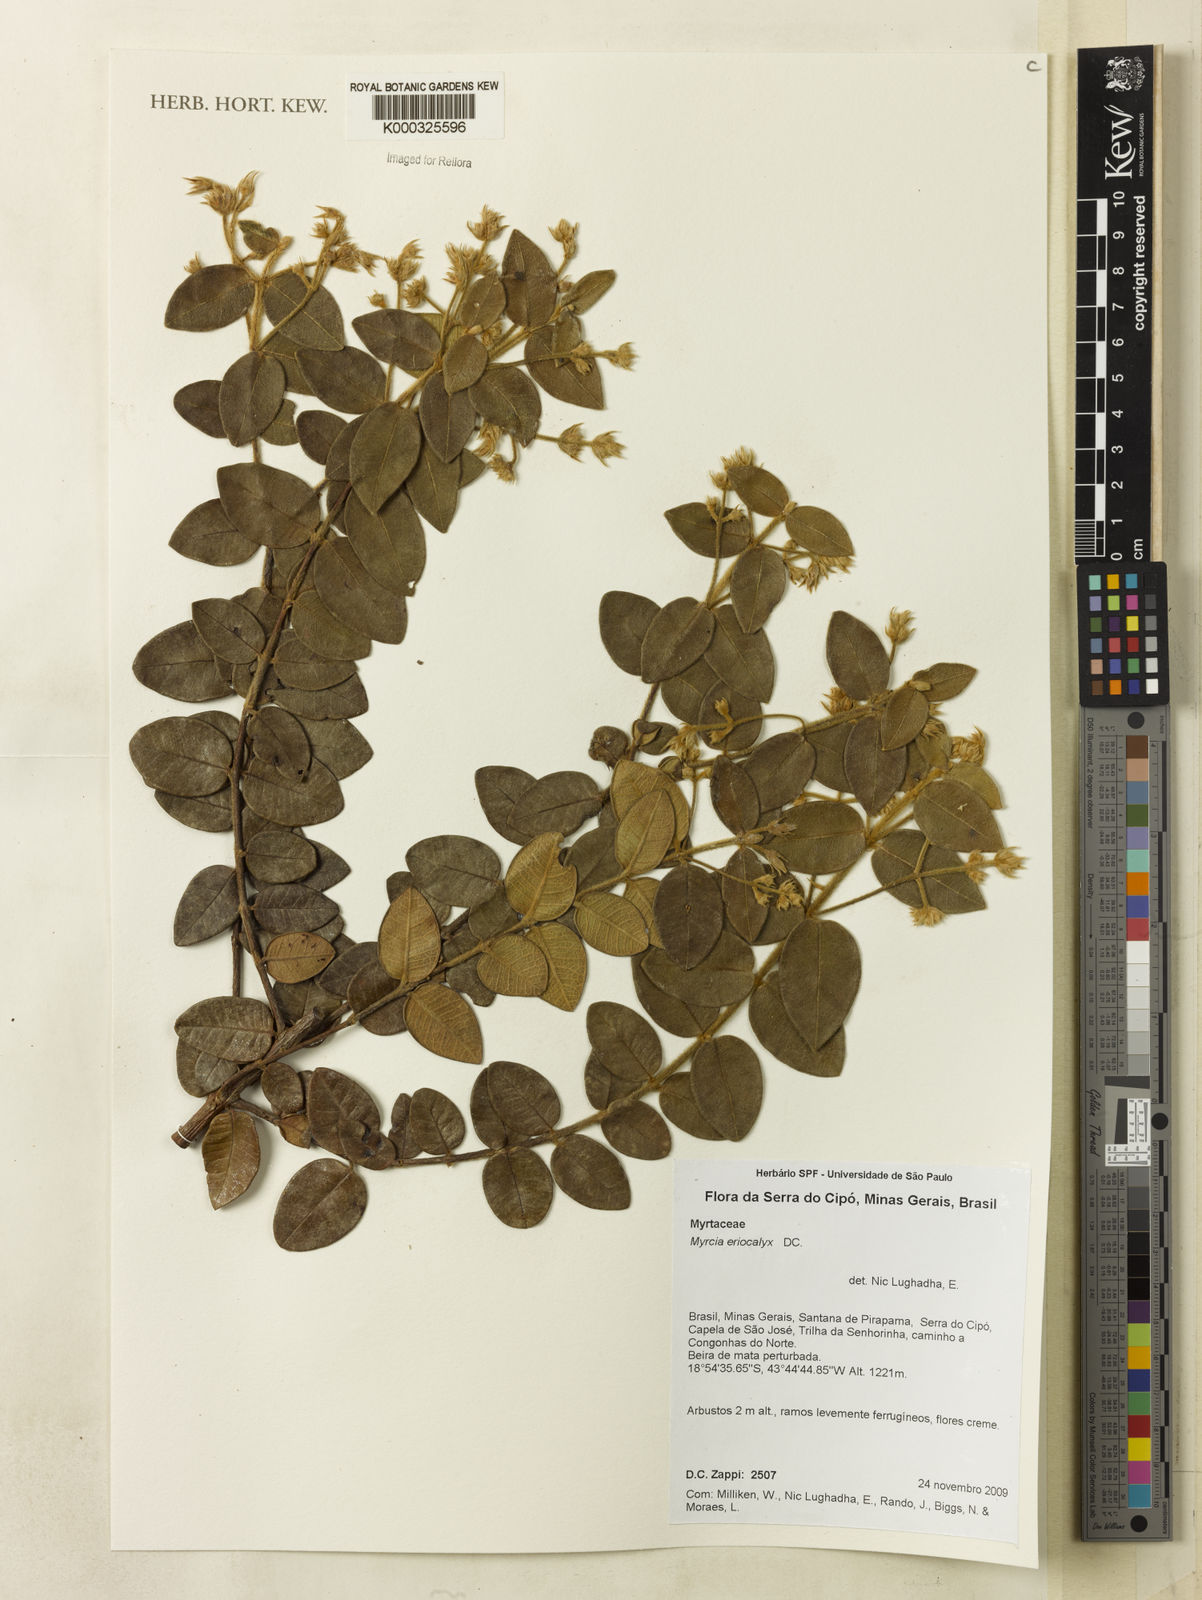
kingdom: Plantae
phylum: Tracheophyta
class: Magnoliopsida
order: Myrtales
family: Myrtaceae
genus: Myrcia
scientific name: Myrcia eriocalyx
